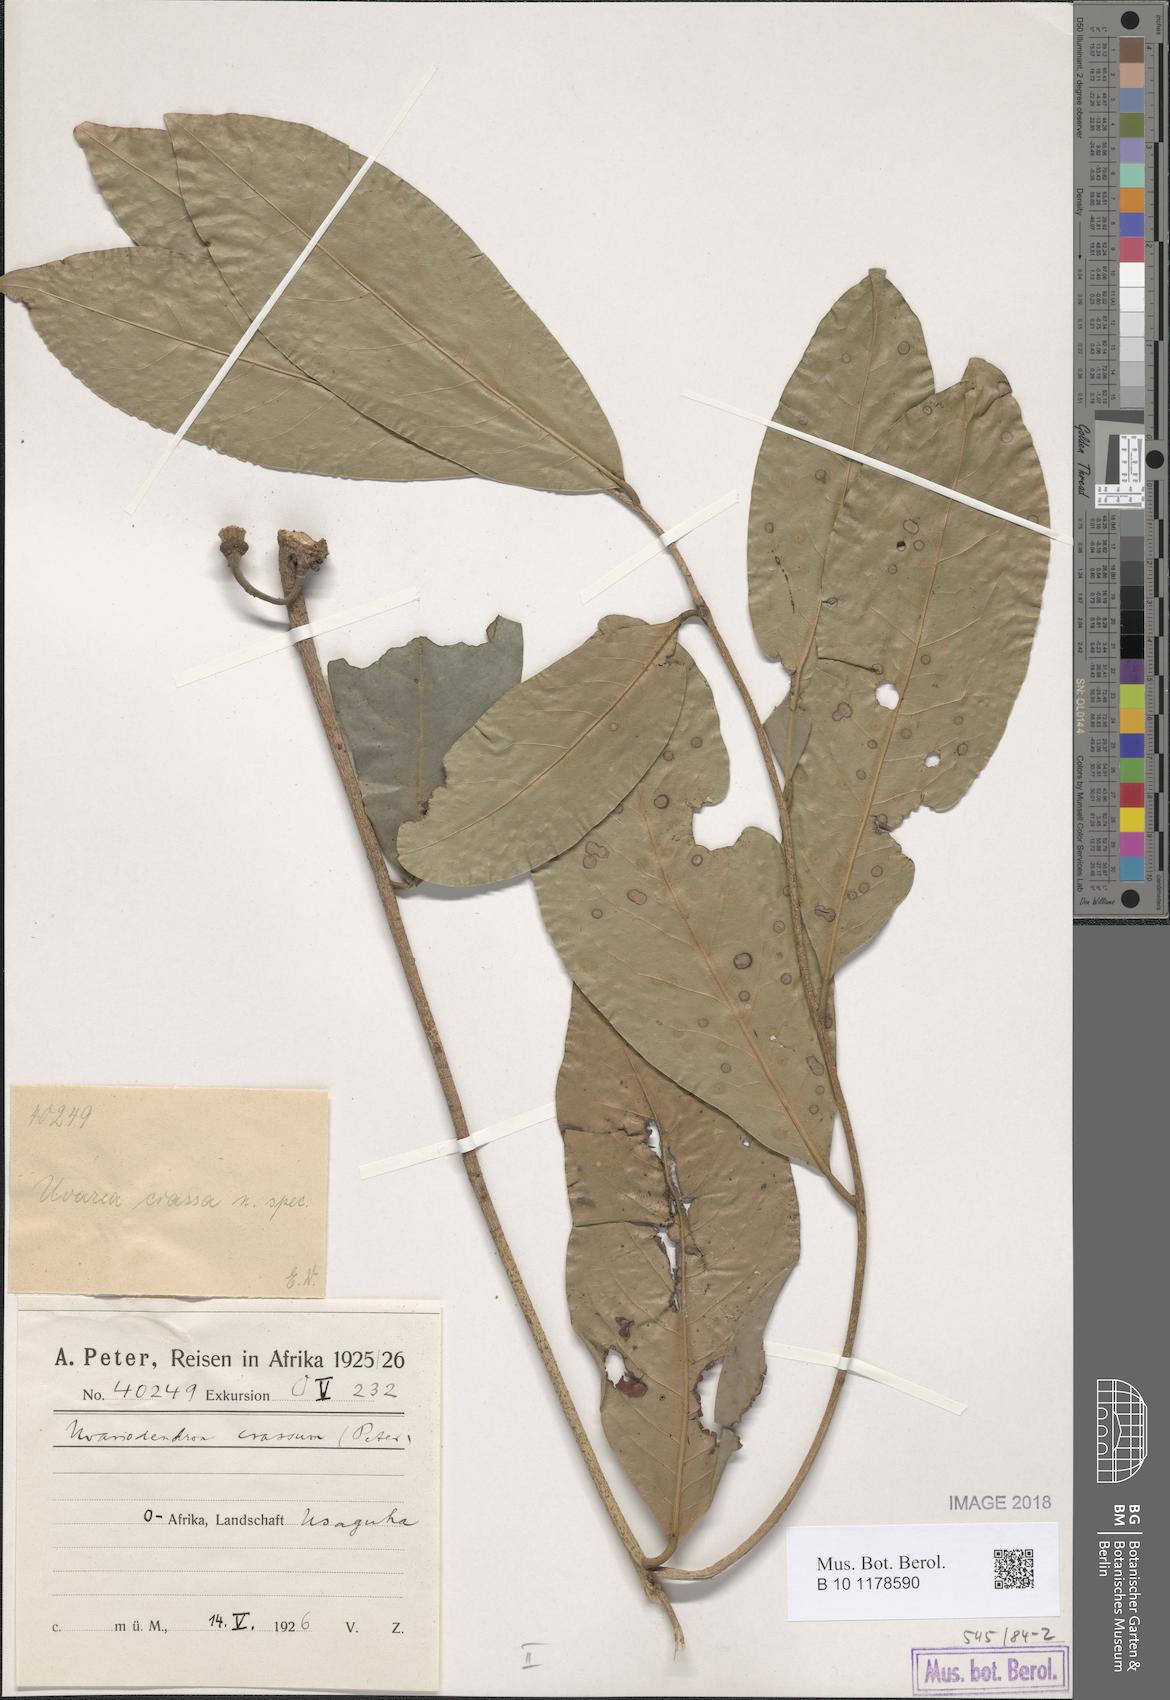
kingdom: Plantae
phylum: Tracheophyta
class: Magnoliopsida
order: Magnoliales
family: Annonaceae
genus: Uvariodendron
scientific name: Uvariodendron kirkii
